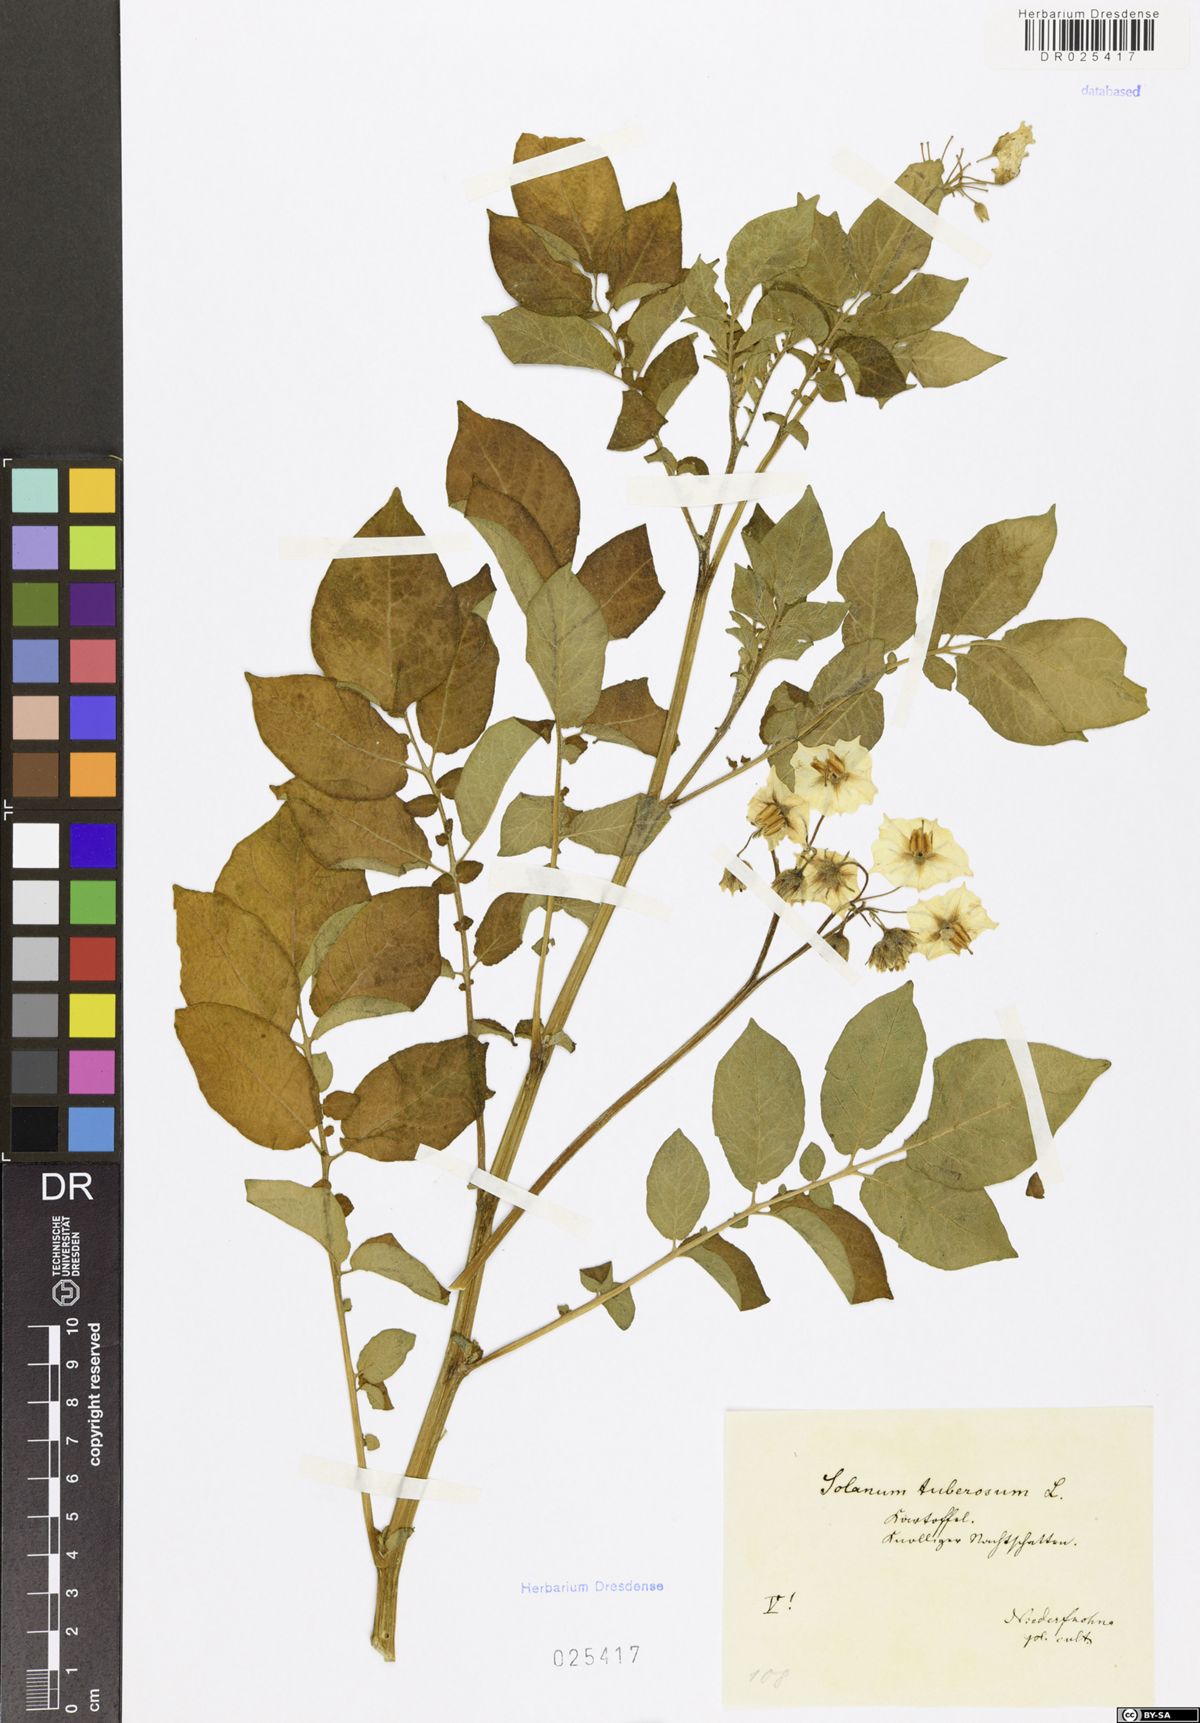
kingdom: Plantae
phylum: Tracheophyta
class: Magnoliopsida
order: Solanales
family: Solanaceae
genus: Solanum
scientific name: Solanum tuberosum
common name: Potato
